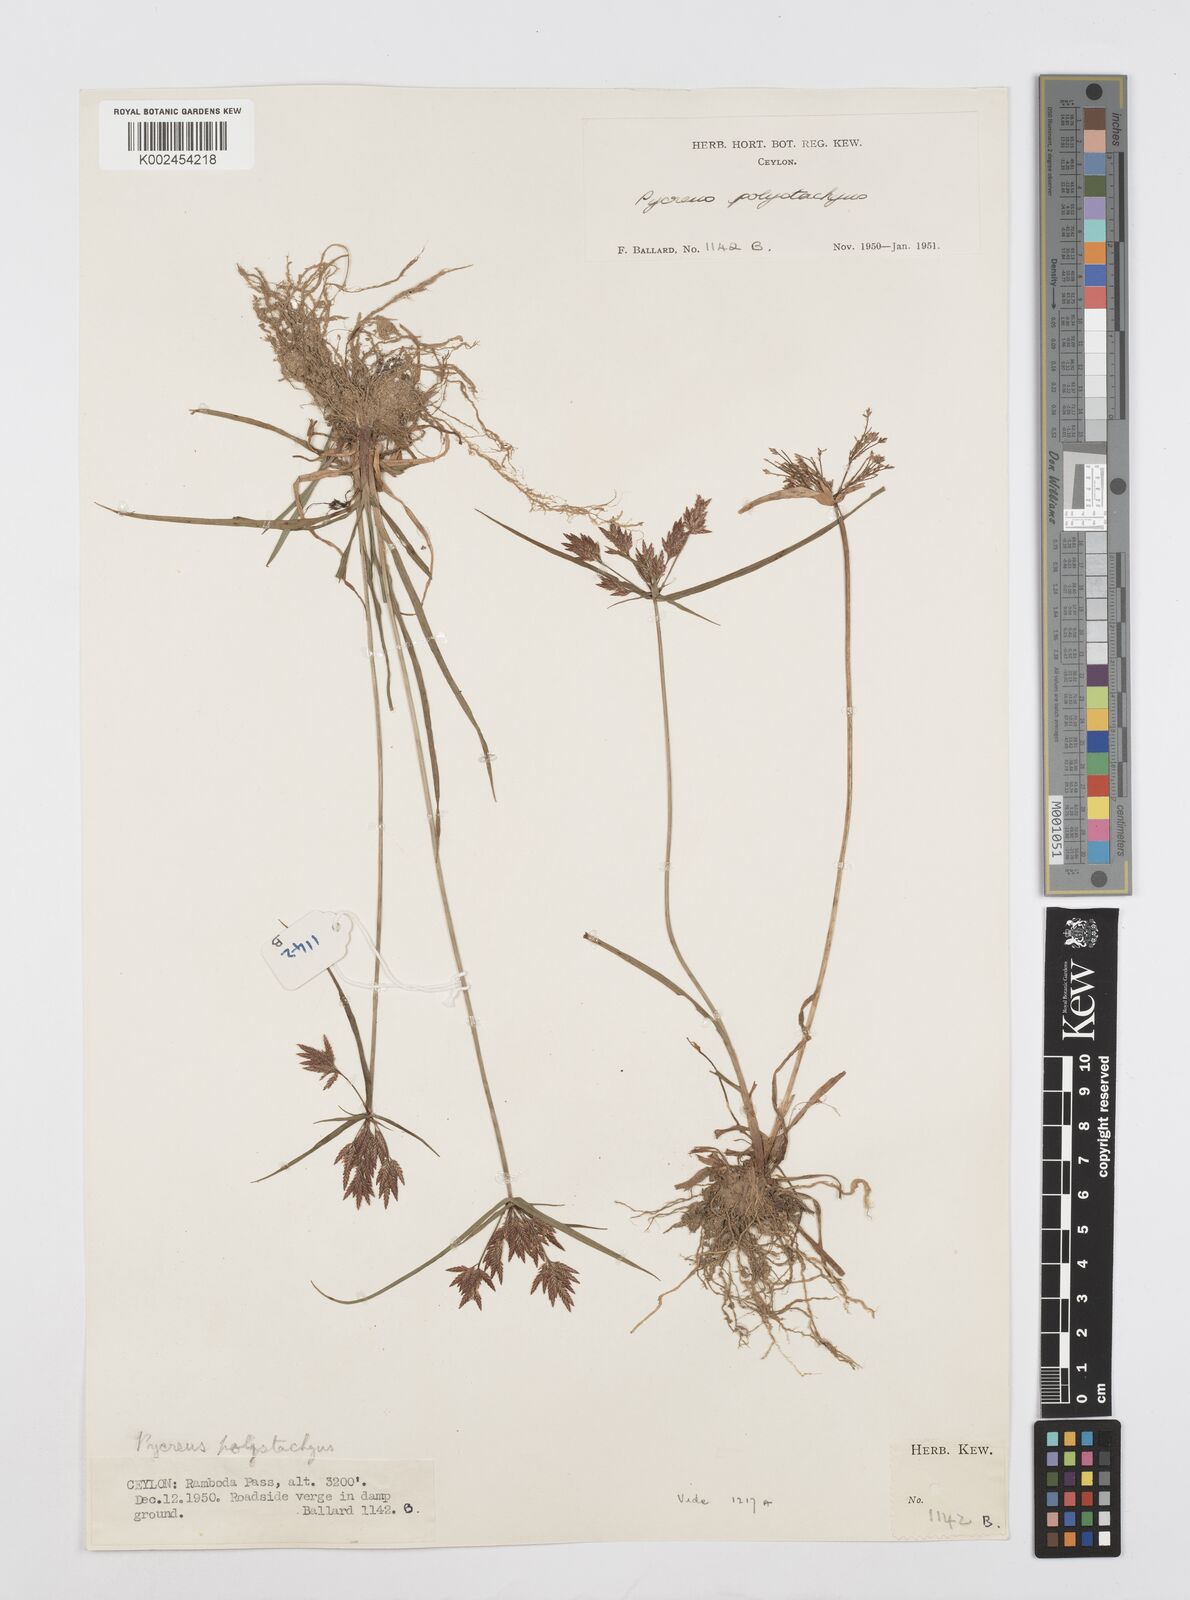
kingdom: Plantae
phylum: Tracheophyta
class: Liliopsida
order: Poales
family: Cyperaceae
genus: Cyperus
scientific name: Cyperus polystachyos
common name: Bunchy flat sedge
